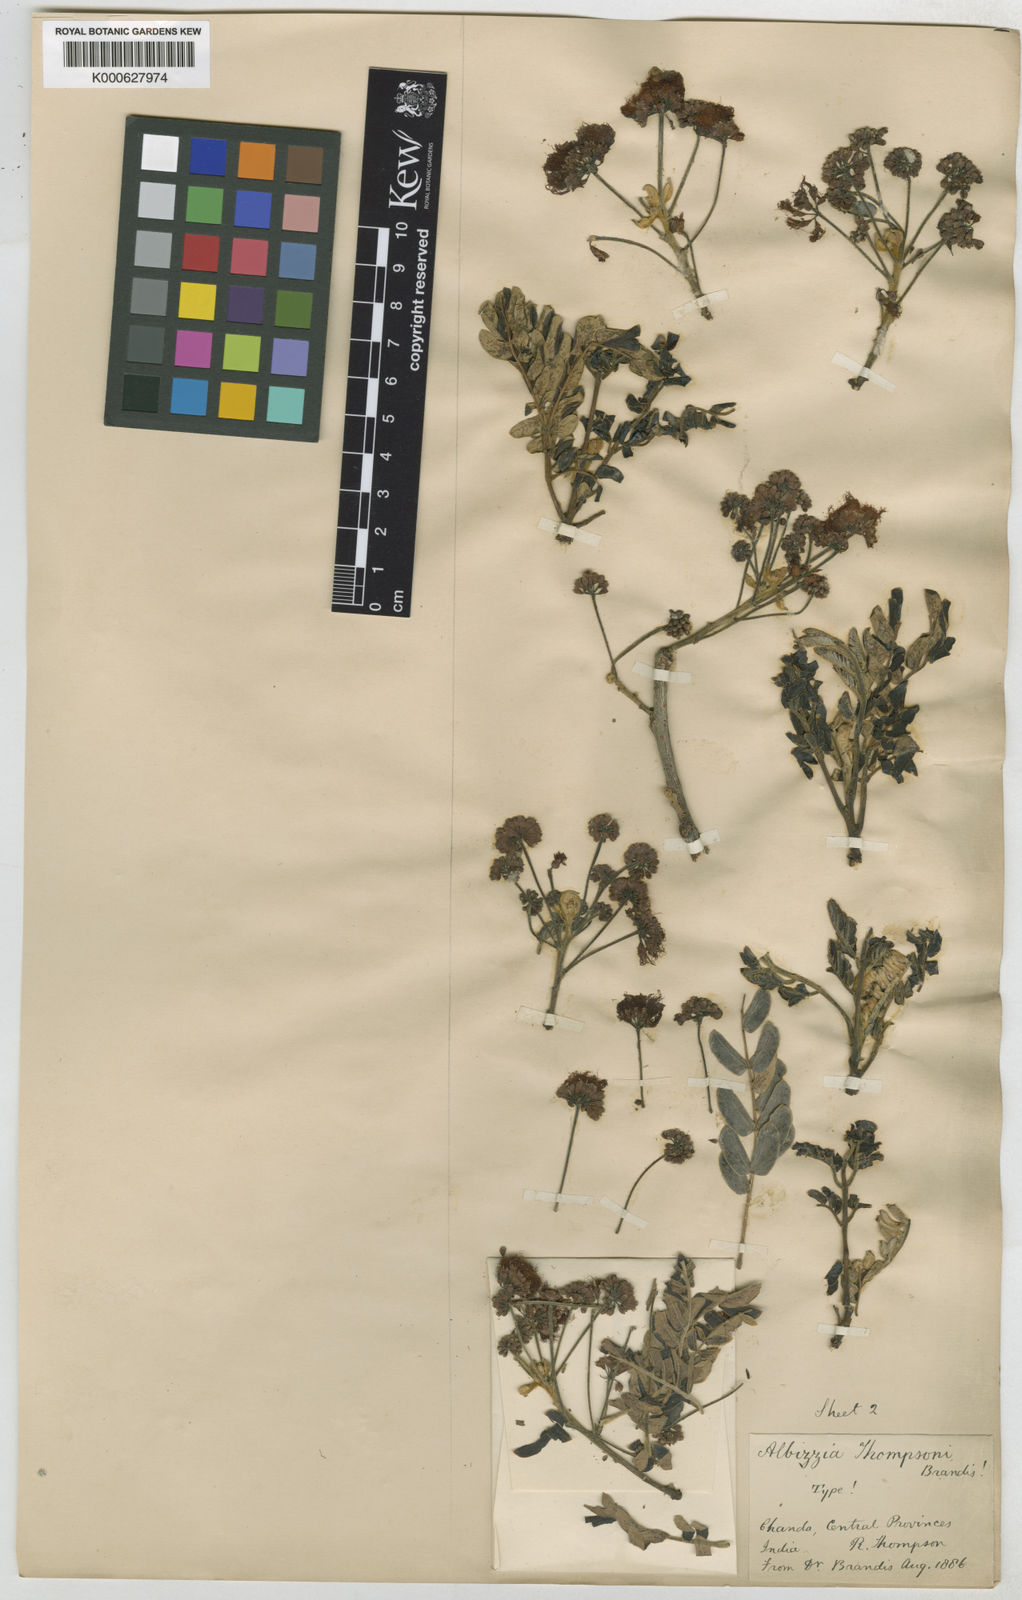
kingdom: Plantae
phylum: Tracheophyta
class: Magnoliopsida
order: Fabales
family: Fabaceae
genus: Albizia
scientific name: Albizia thompsonii
